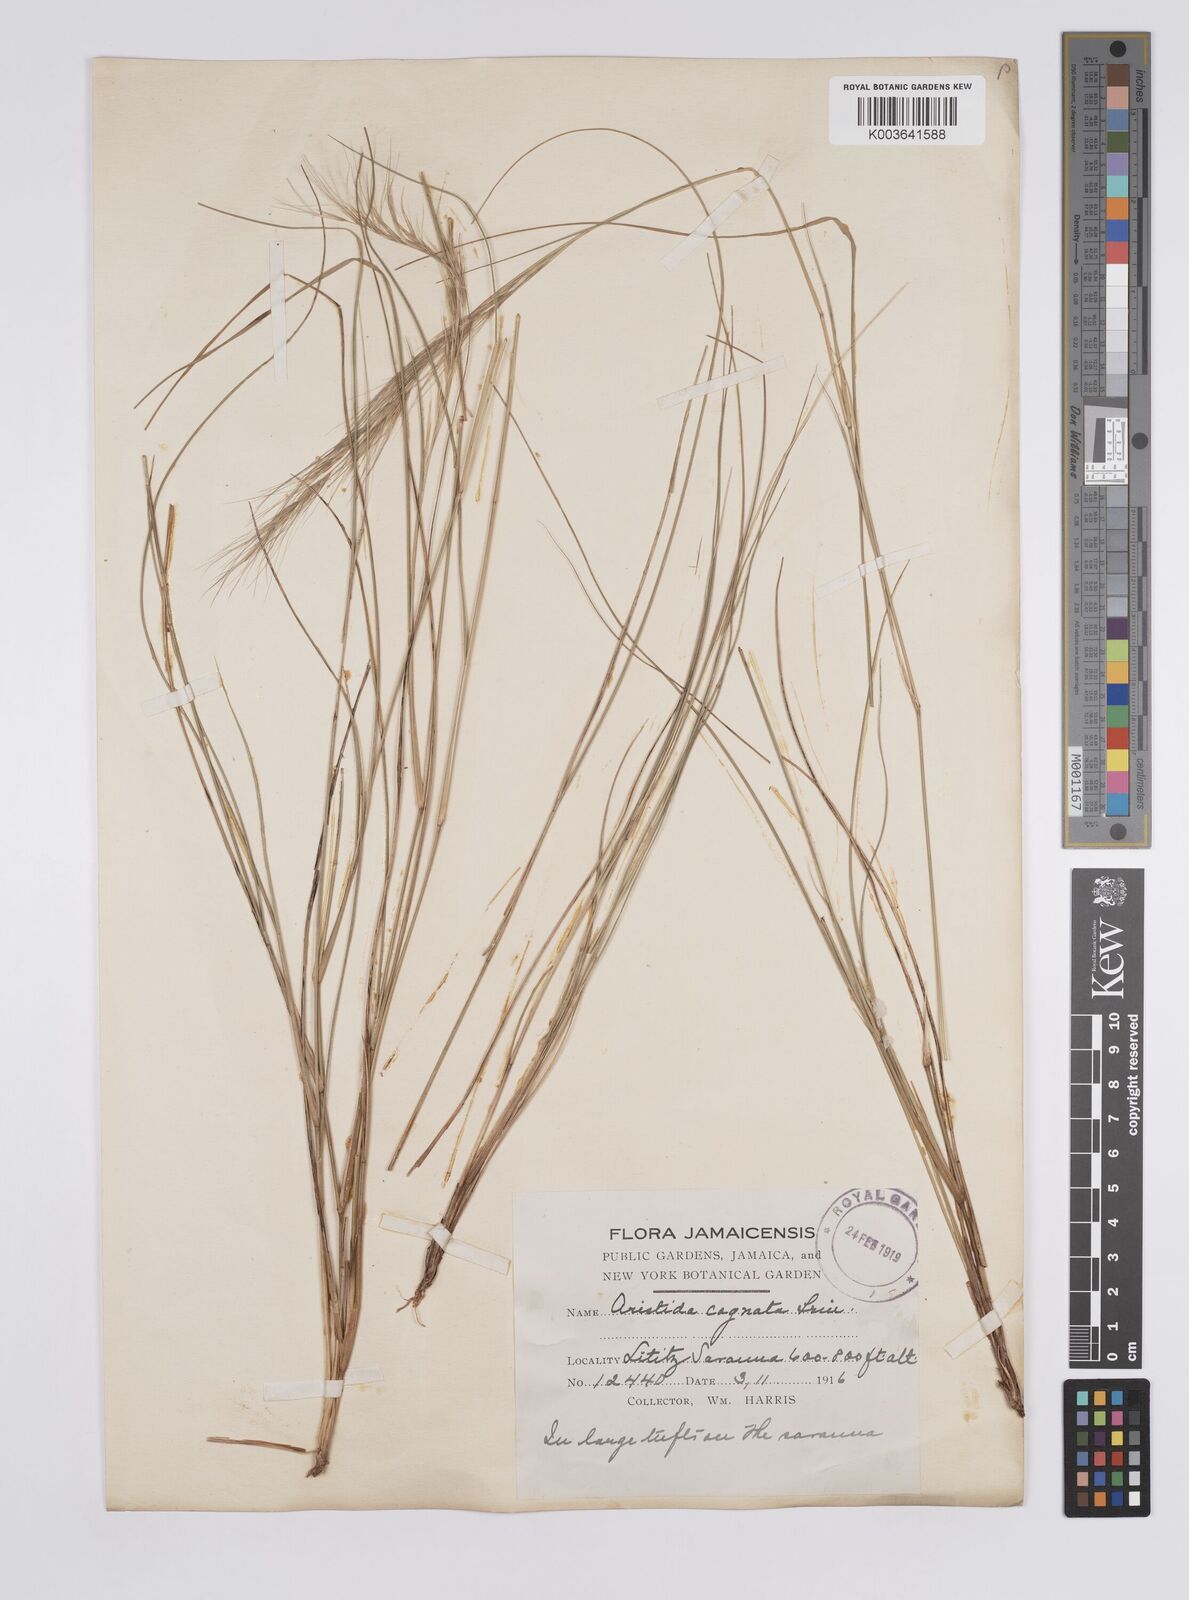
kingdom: Plantae
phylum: Tracheophyta
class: Liliopsida
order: Poales
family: Poaceae
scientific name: Poaceae
